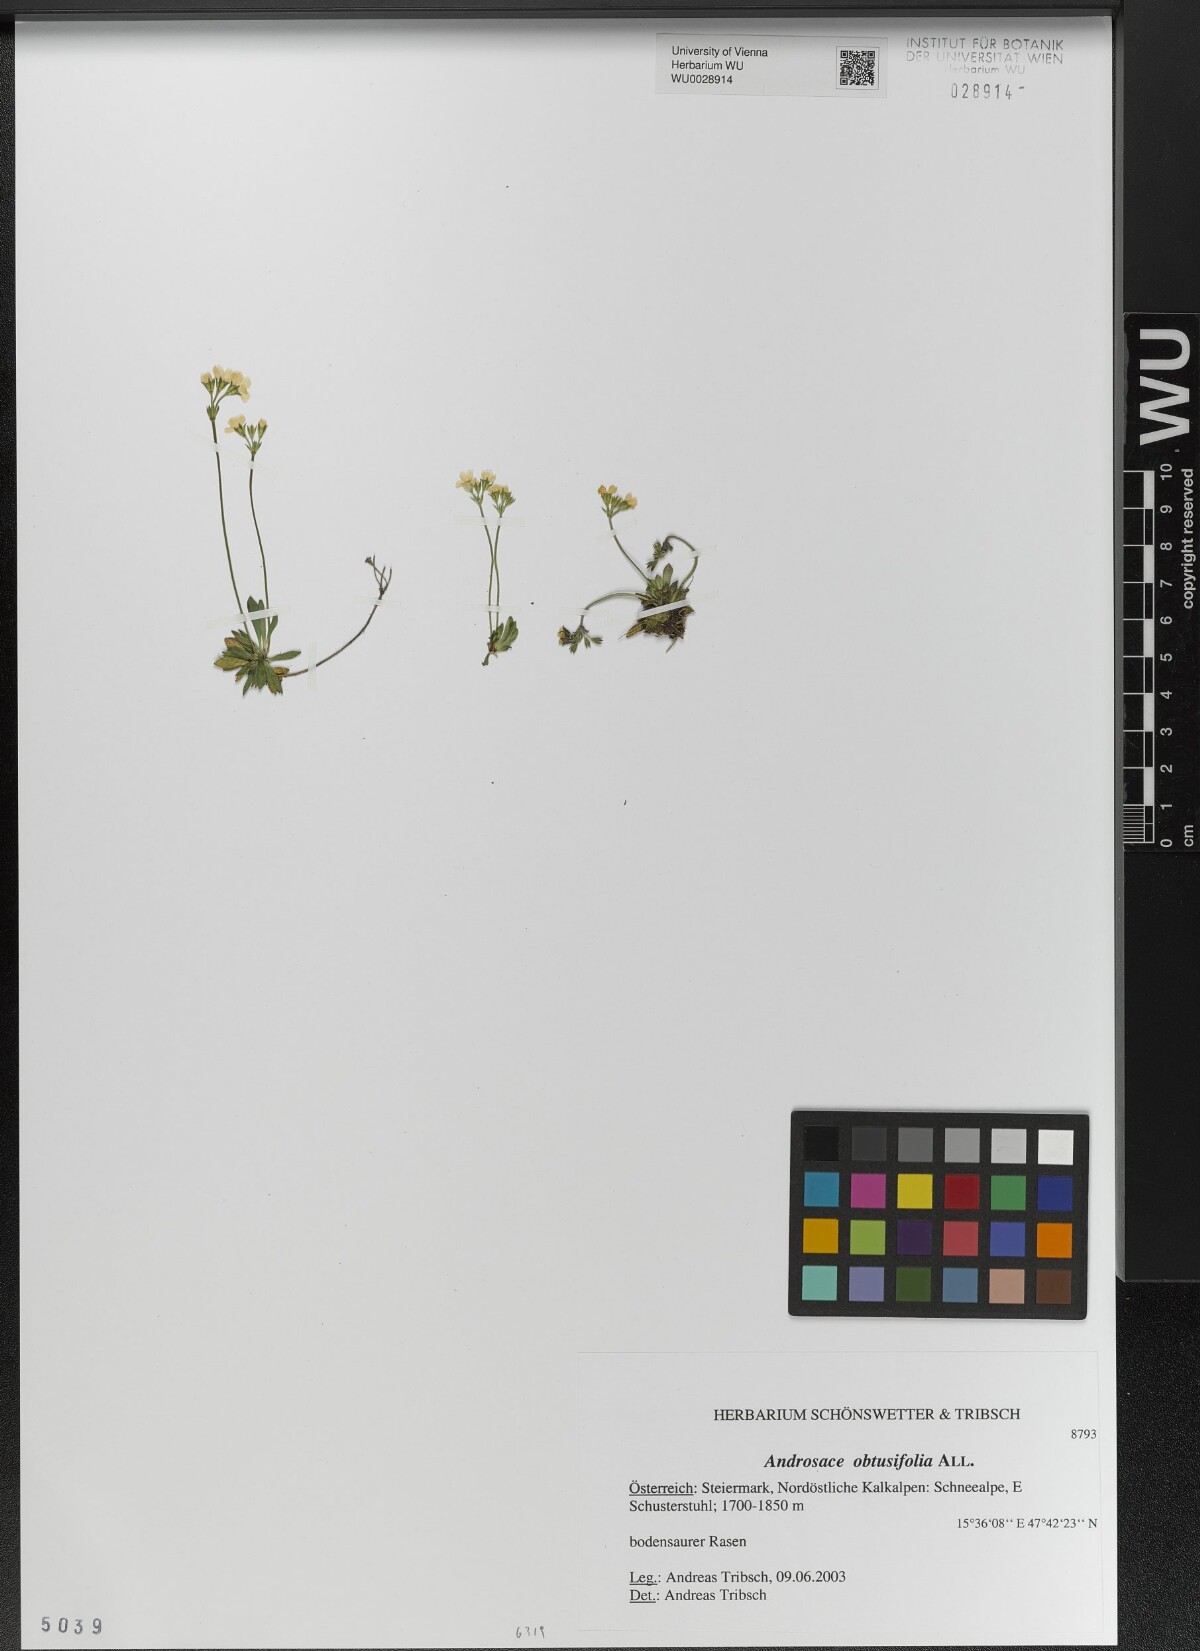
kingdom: Plantae
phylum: Tracheophyta
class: Magnoliopsida
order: Ericales
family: Primulaceae
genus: Androsace
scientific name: Androsace obtusifolia
